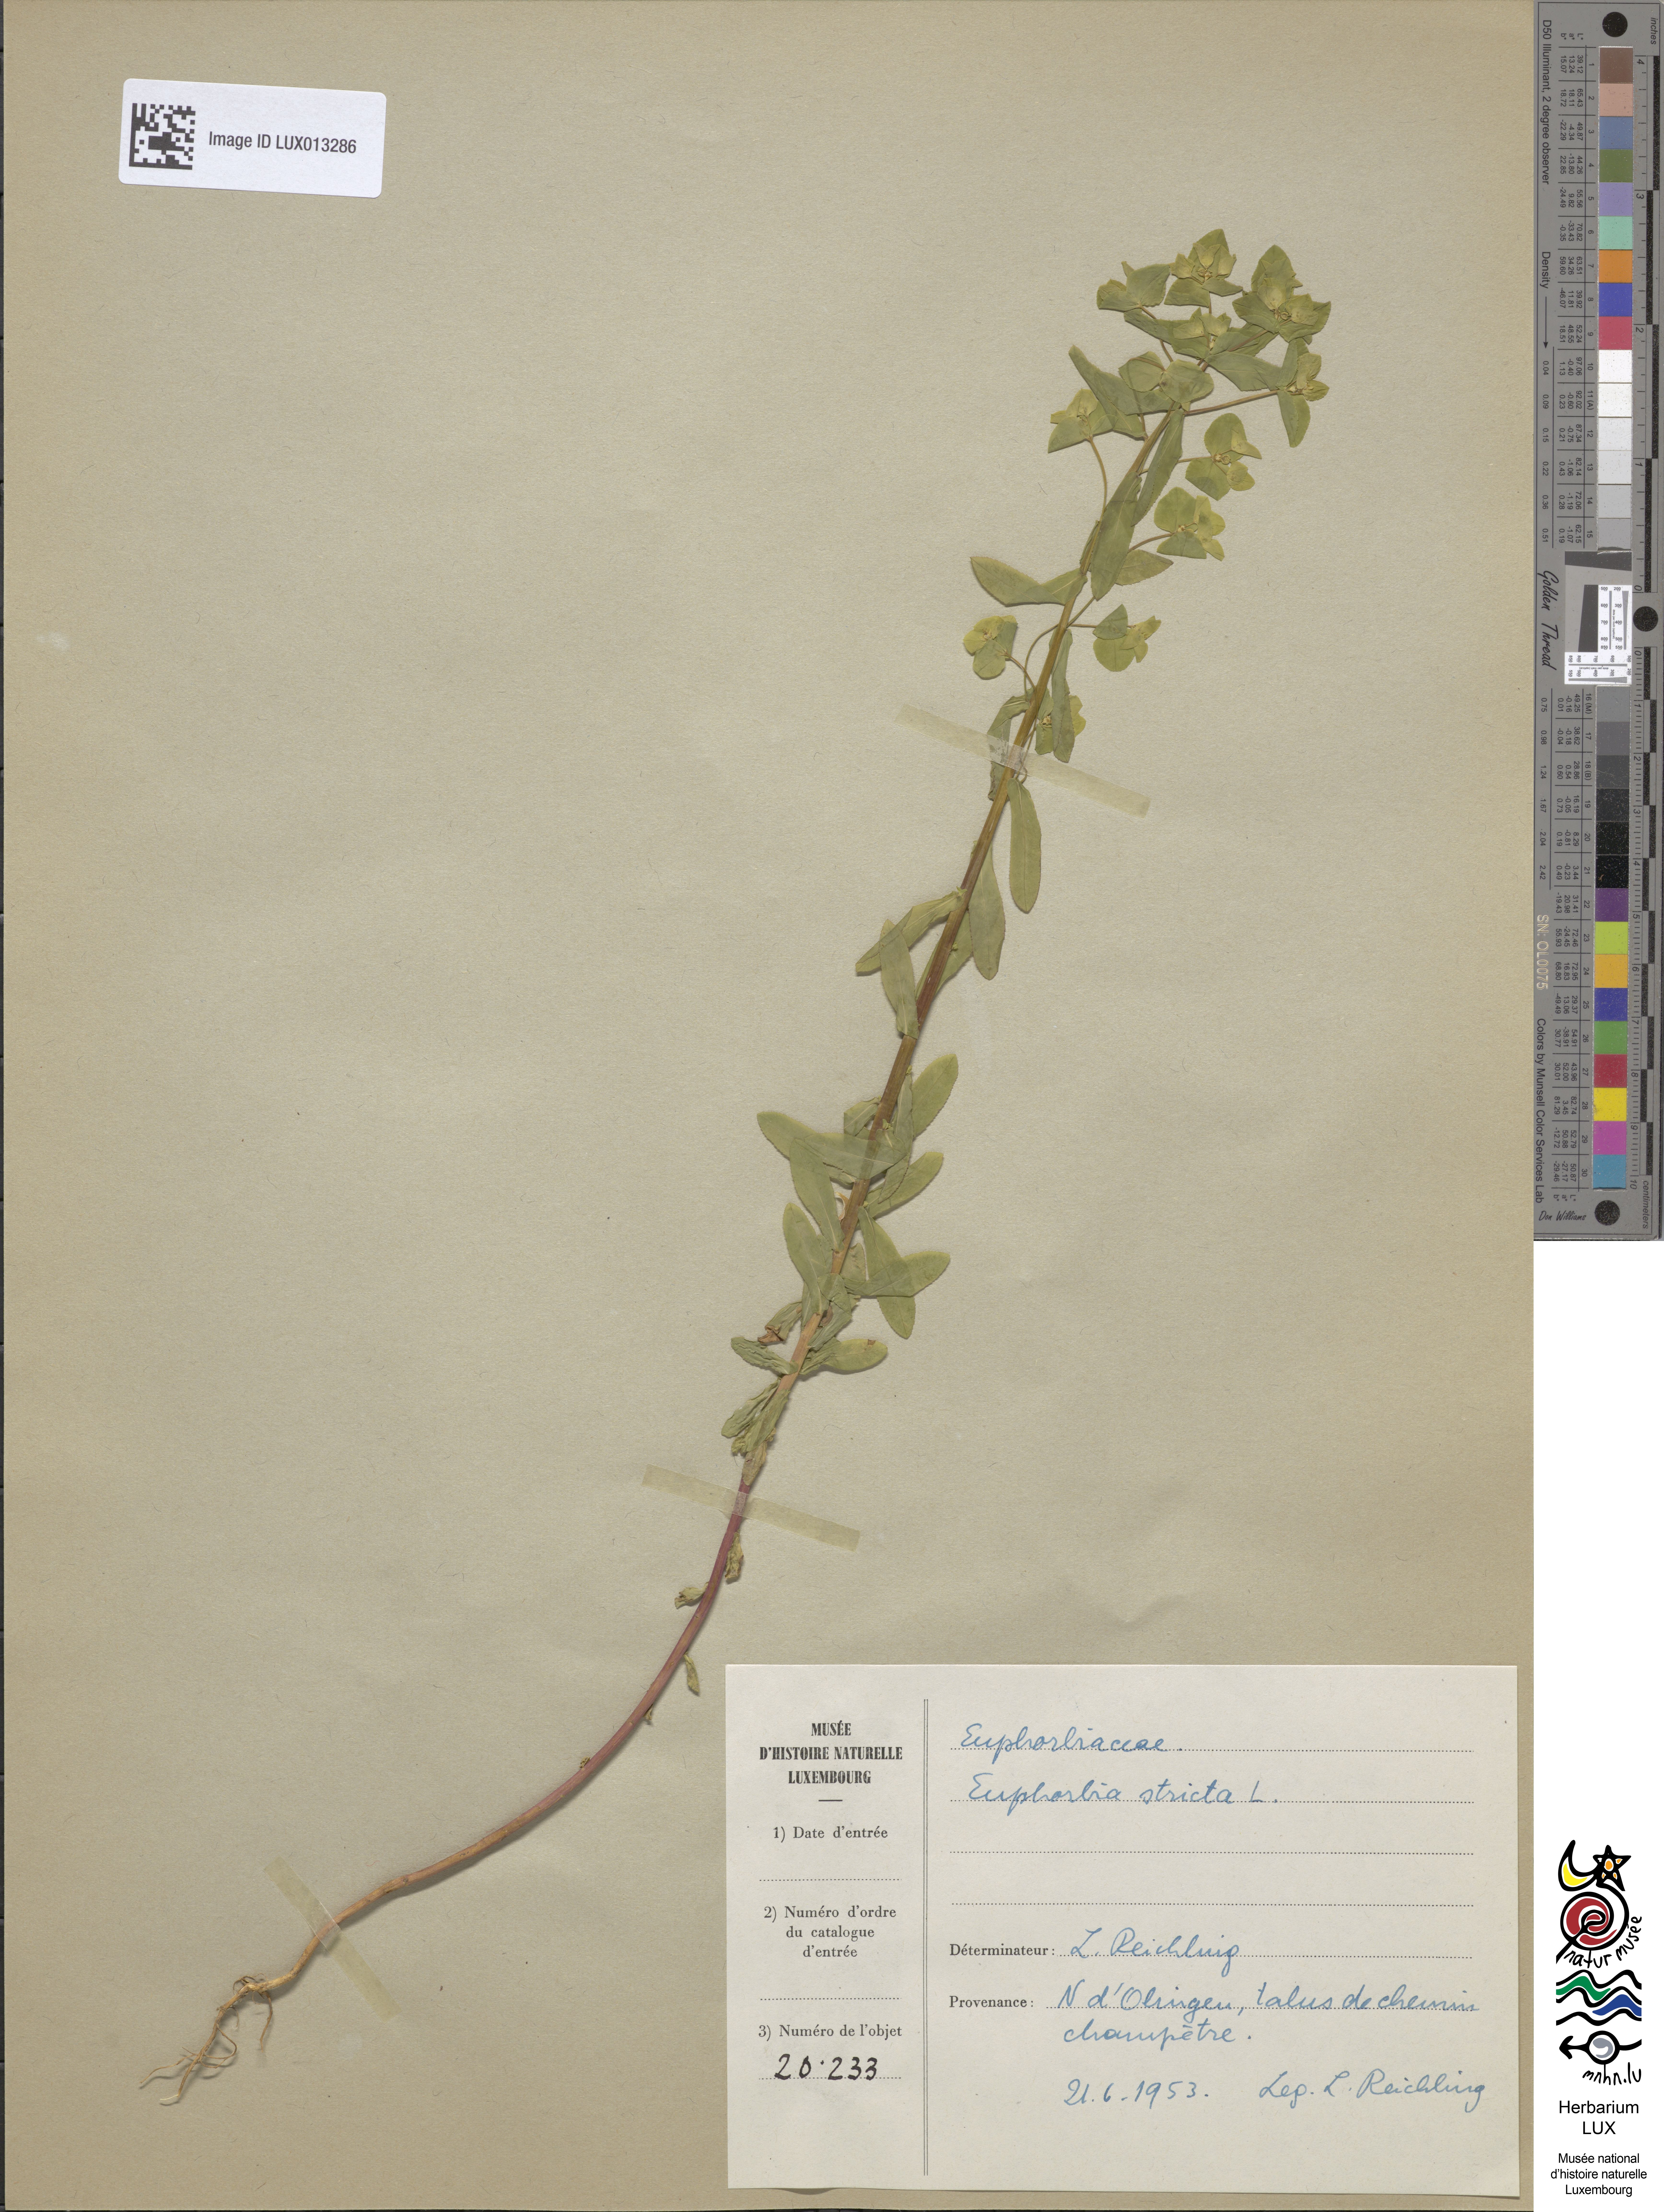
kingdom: Plantae
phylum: Tracheophyta
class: Magnoliopsida
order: Malpighiales
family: Euphorbiaceae
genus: Euphorbia
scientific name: Euphorbia stricta
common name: Upright spurge
